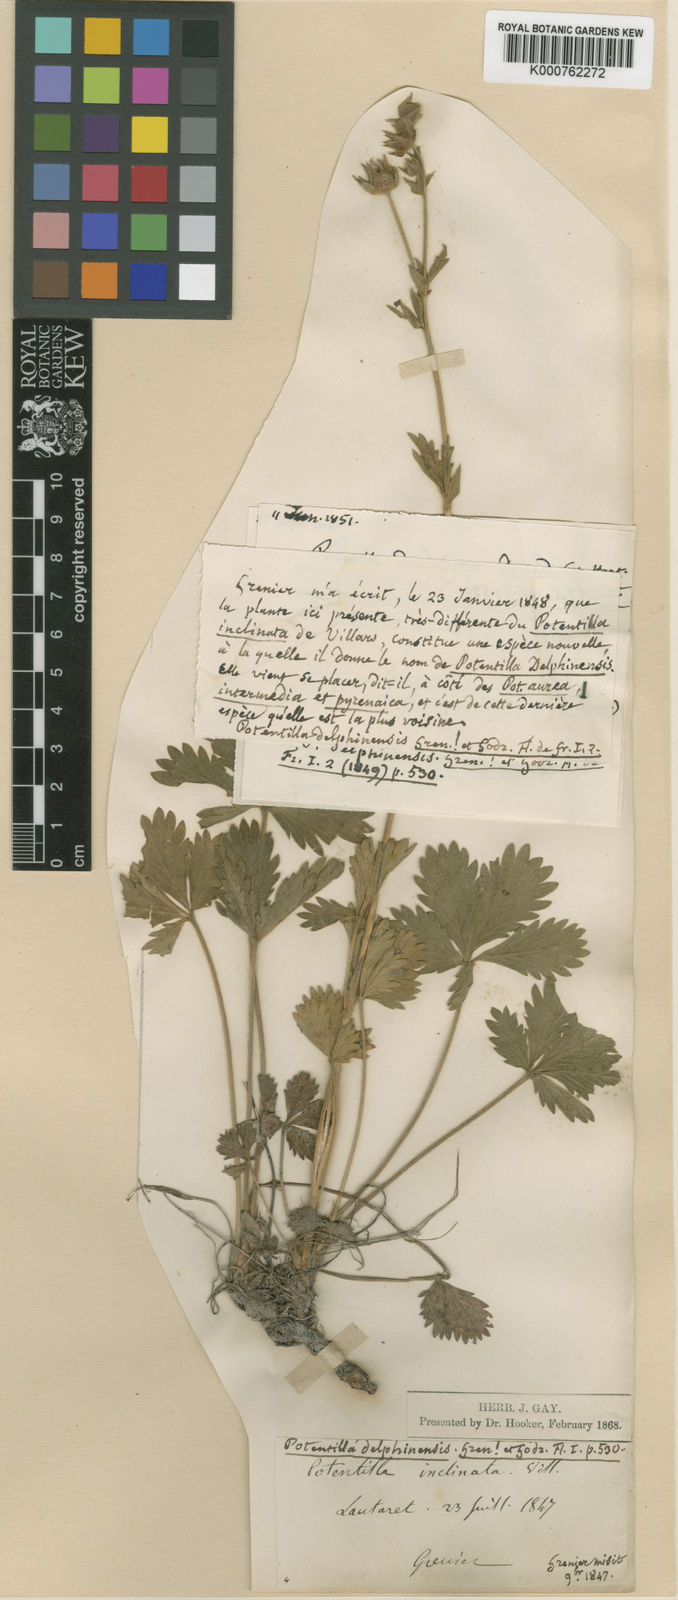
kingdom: Plantae
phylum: Tracheophyta
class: Magnoliopsida
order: Rosales
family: Rosaceae
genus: Potentilla
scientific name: Potentilla delphinensis
